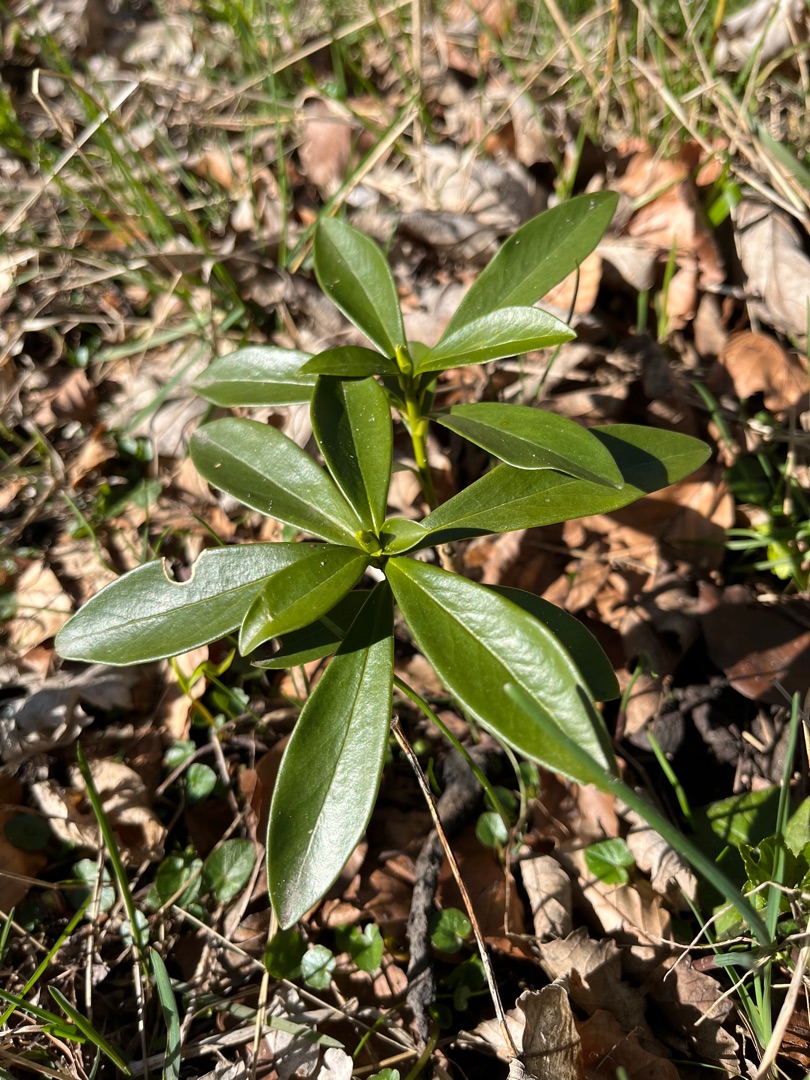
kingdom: Plantae
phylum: Tracheophyta
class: Magnoliopsida
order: Malvales
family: Thymelaeaceae
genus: Daphne
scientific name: Daphne laureola
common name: Laurbær-dafne
